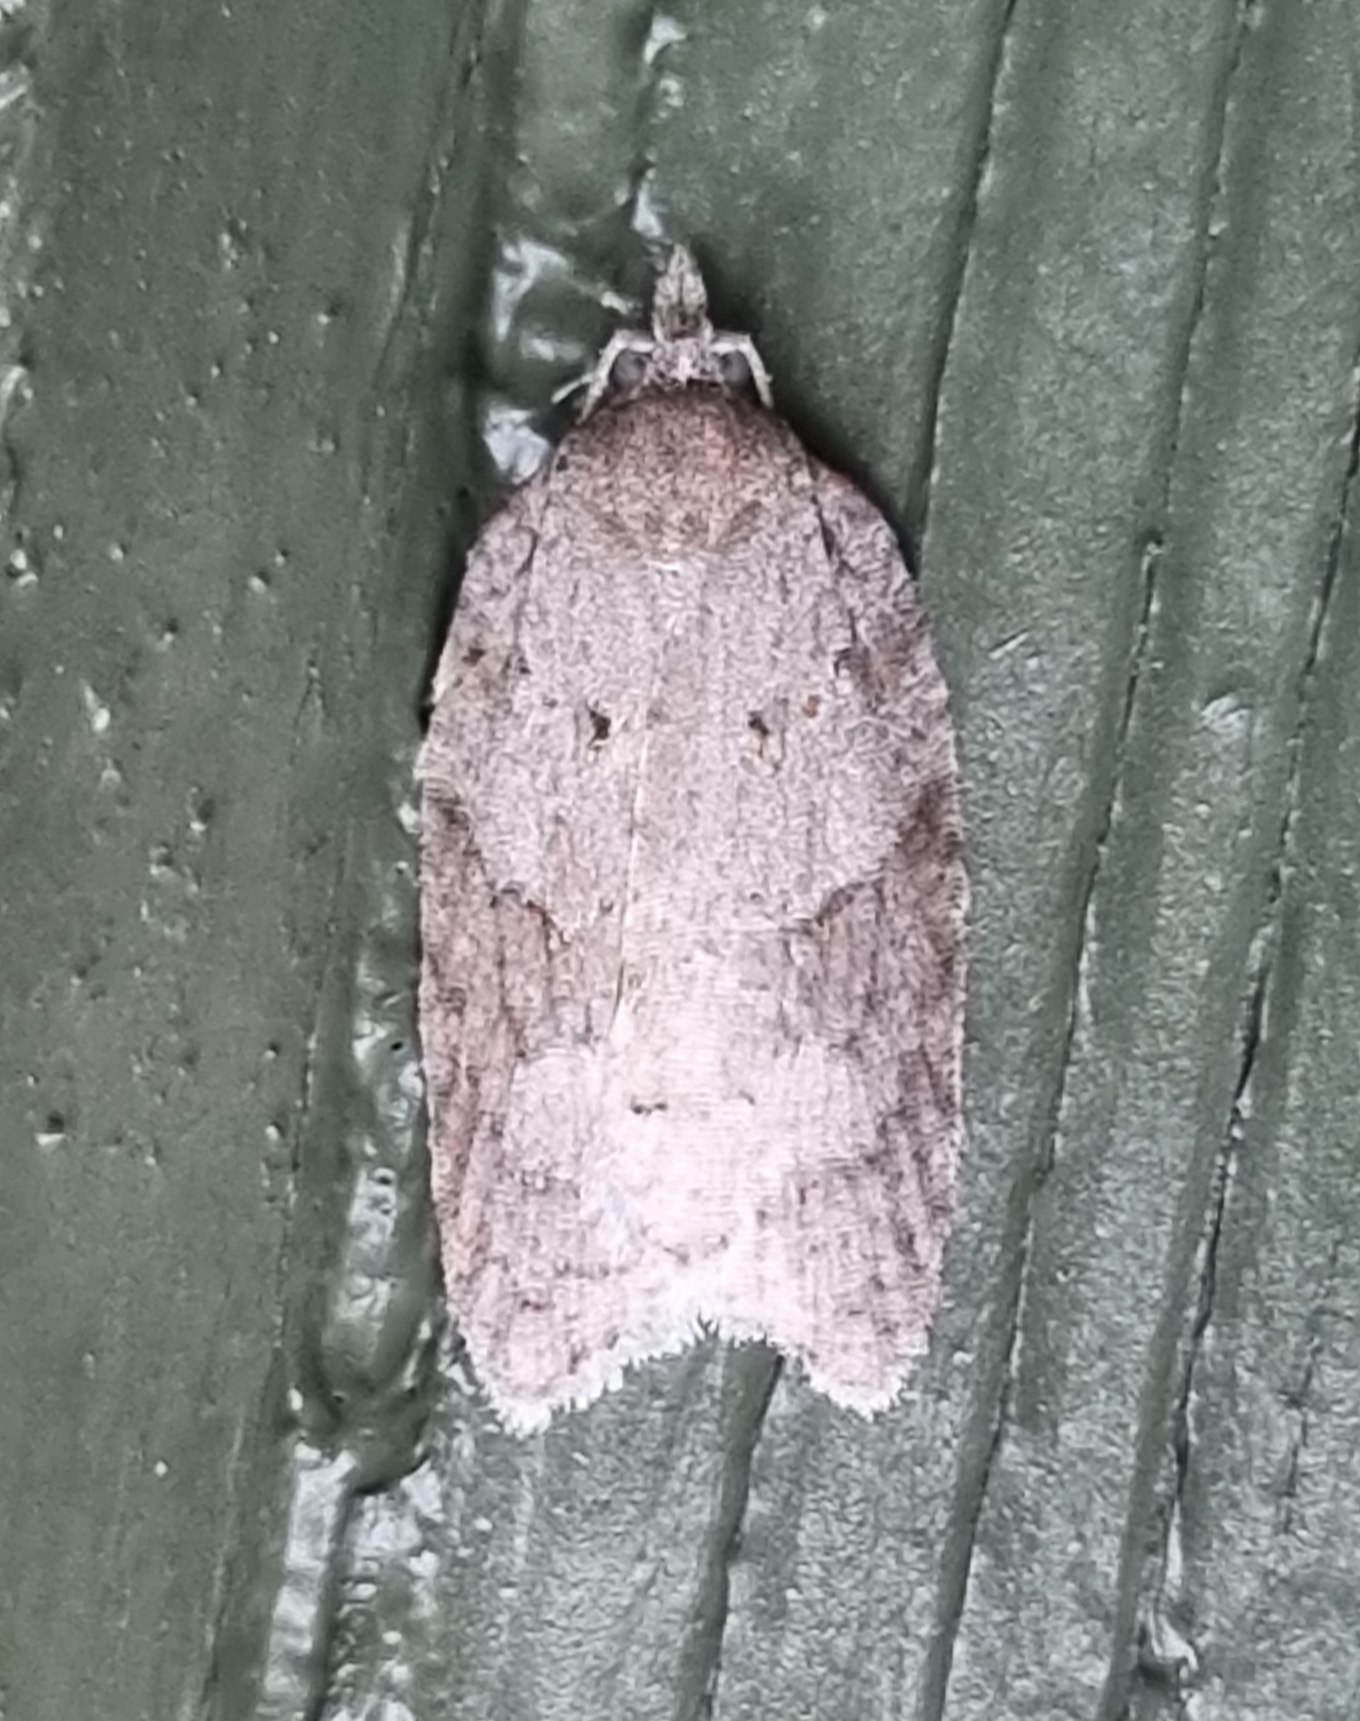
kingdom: Animalia
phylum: Arthropoda
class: Insecta
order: Lepidoptera
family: Tortricidae
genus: Acleris
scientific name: Acleris sparsana
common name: Bøgevintervikler
